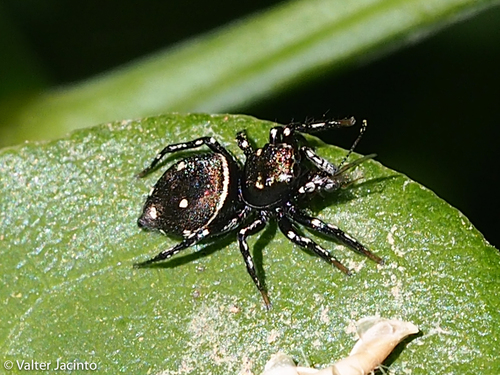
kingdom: Animalia
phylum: Arthropoda
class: Arachnida
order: Araneae
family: Salticidae
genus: Heliophanus
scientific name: Heliophanus apiatus
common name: Sun jumping spider
